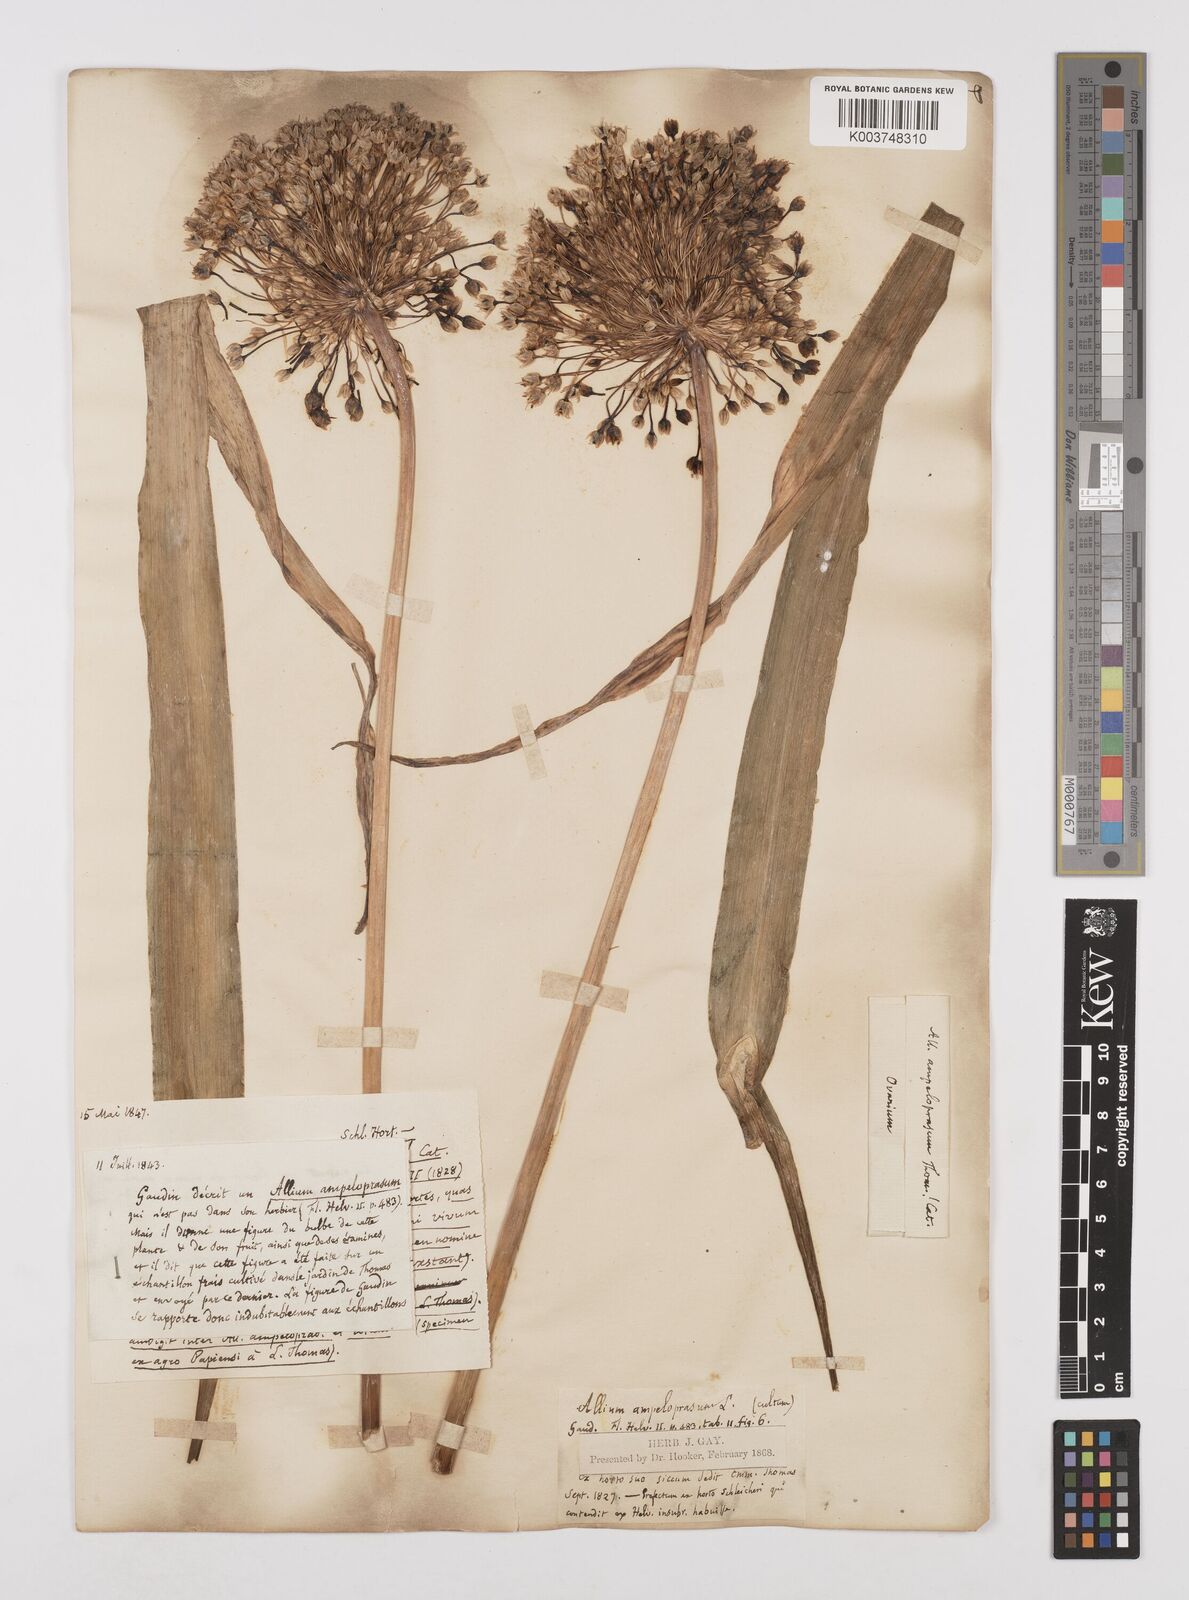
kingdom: Plantae
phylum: Tracheophyta
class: Liliopsida
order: Asparagales
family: Amaryllidaceae
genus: Allium
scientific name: Allium ampeloprasum
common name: Wild leek
